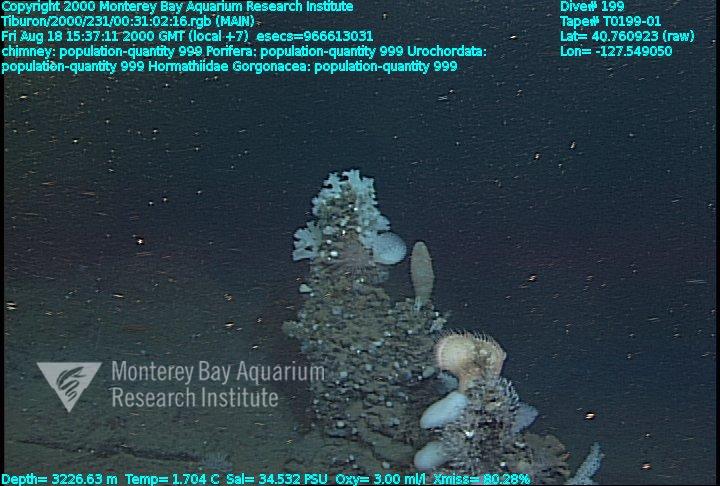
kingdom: Animalia
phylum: Porifera
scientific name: Porifera
